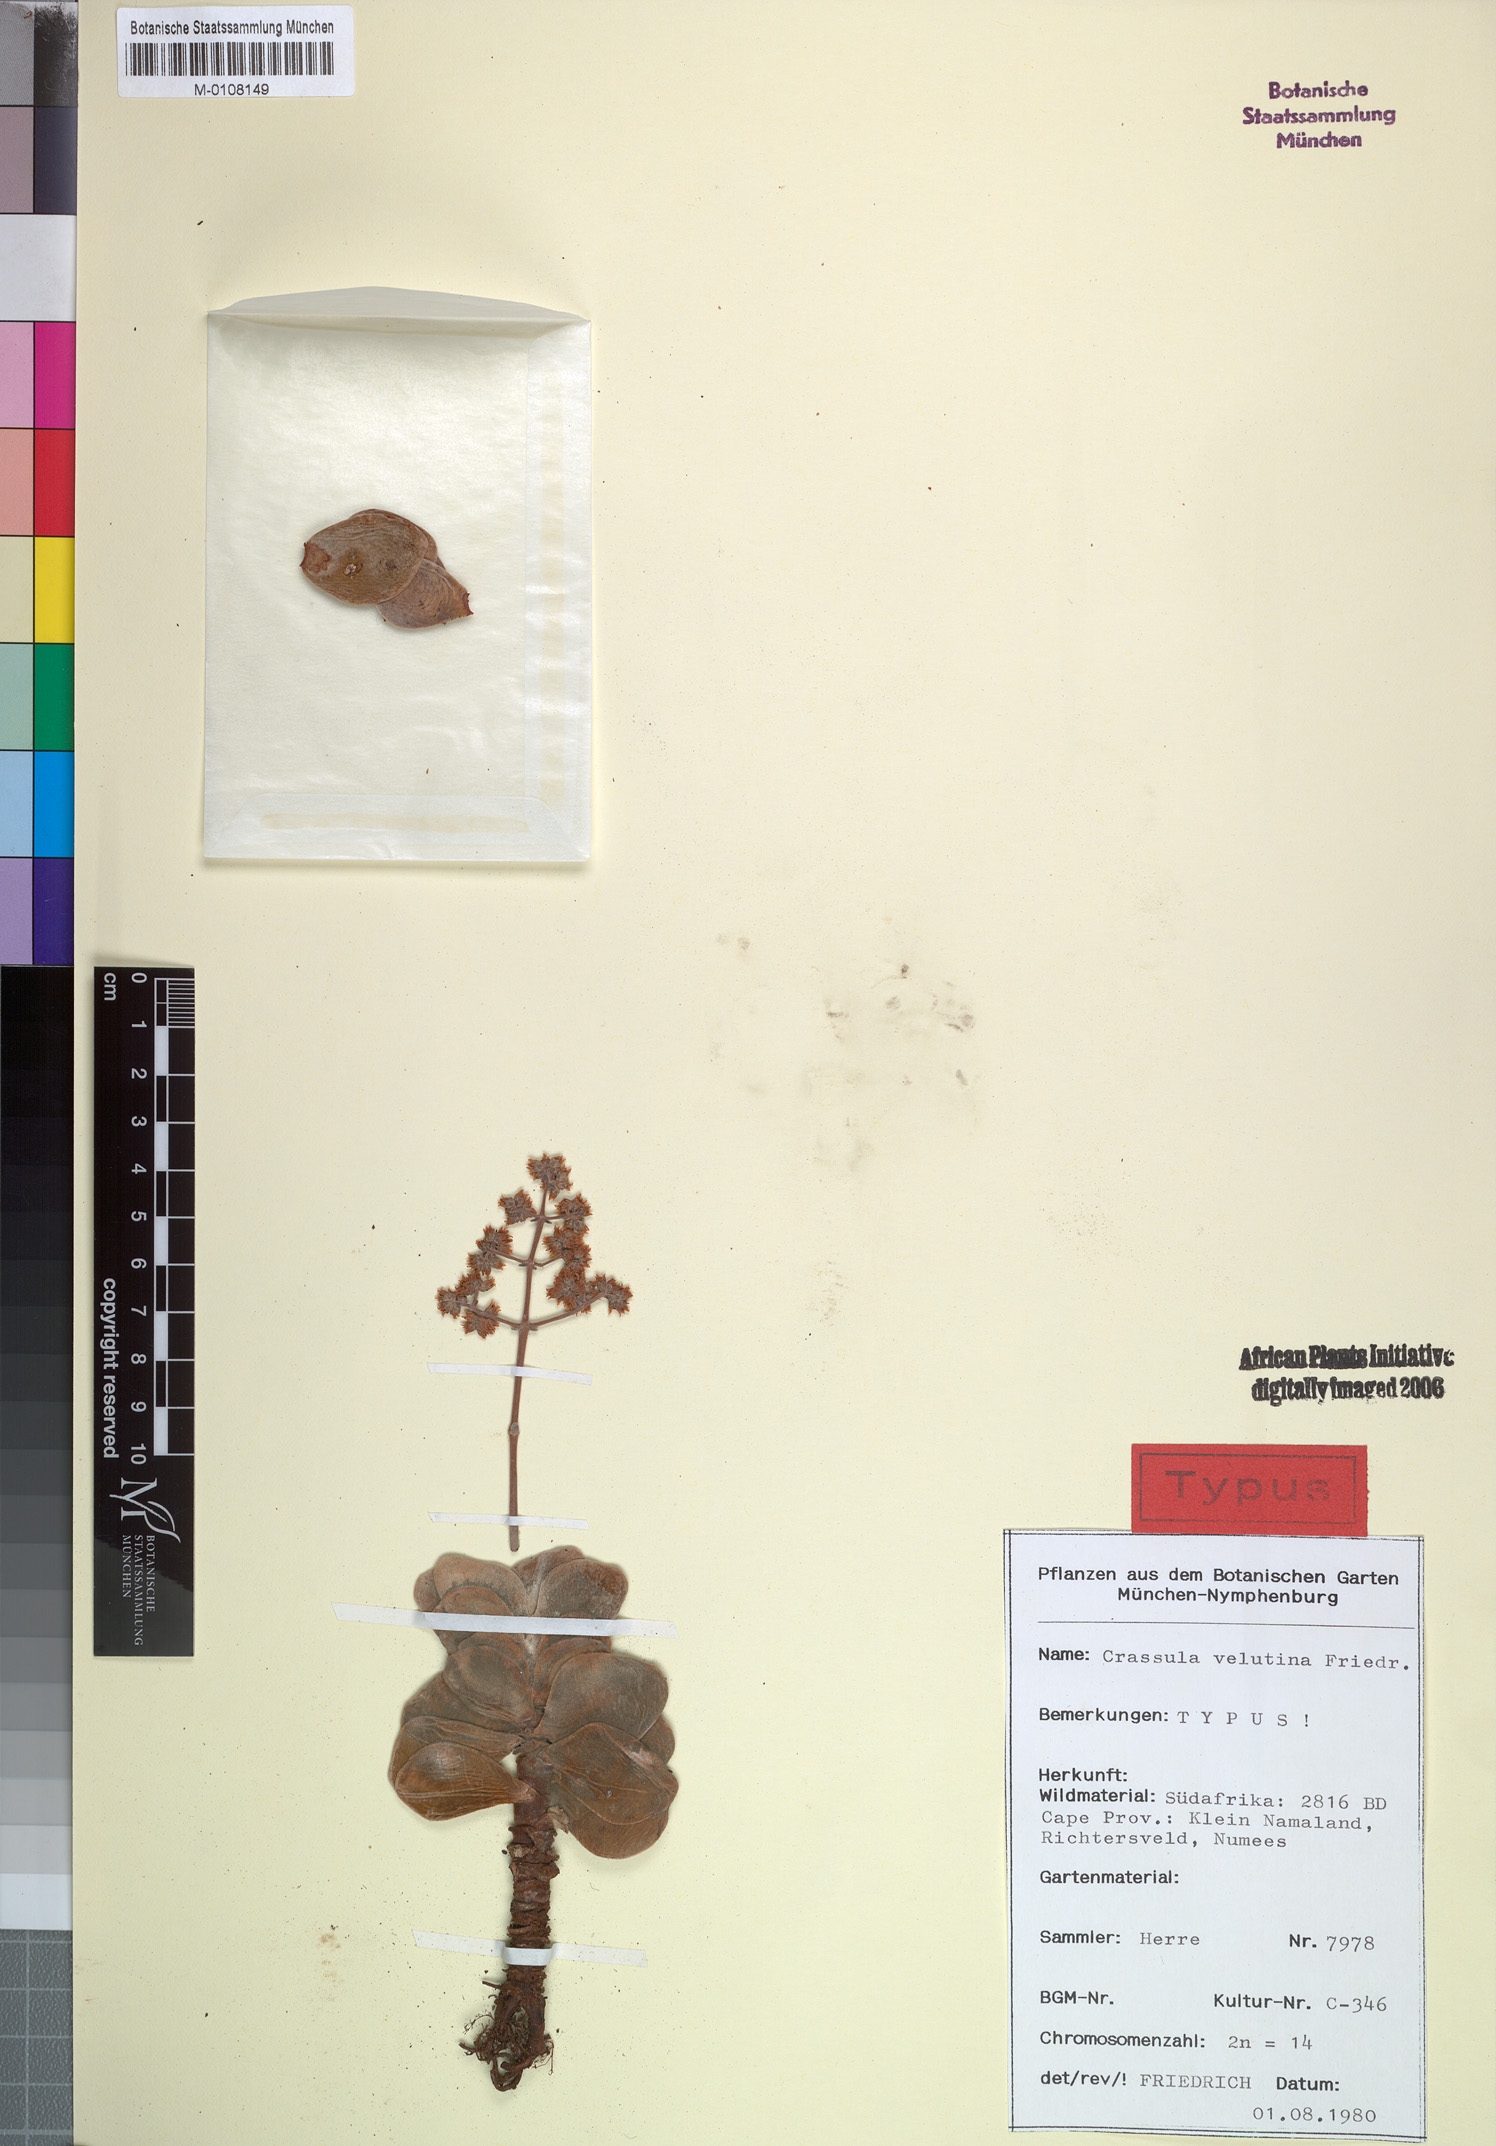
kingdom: Plantae
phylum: Tracheophyta
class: Magnoliopsida
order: Saxifragales
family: Crassulaceae
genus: Crassula
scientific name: Crassula sericea
